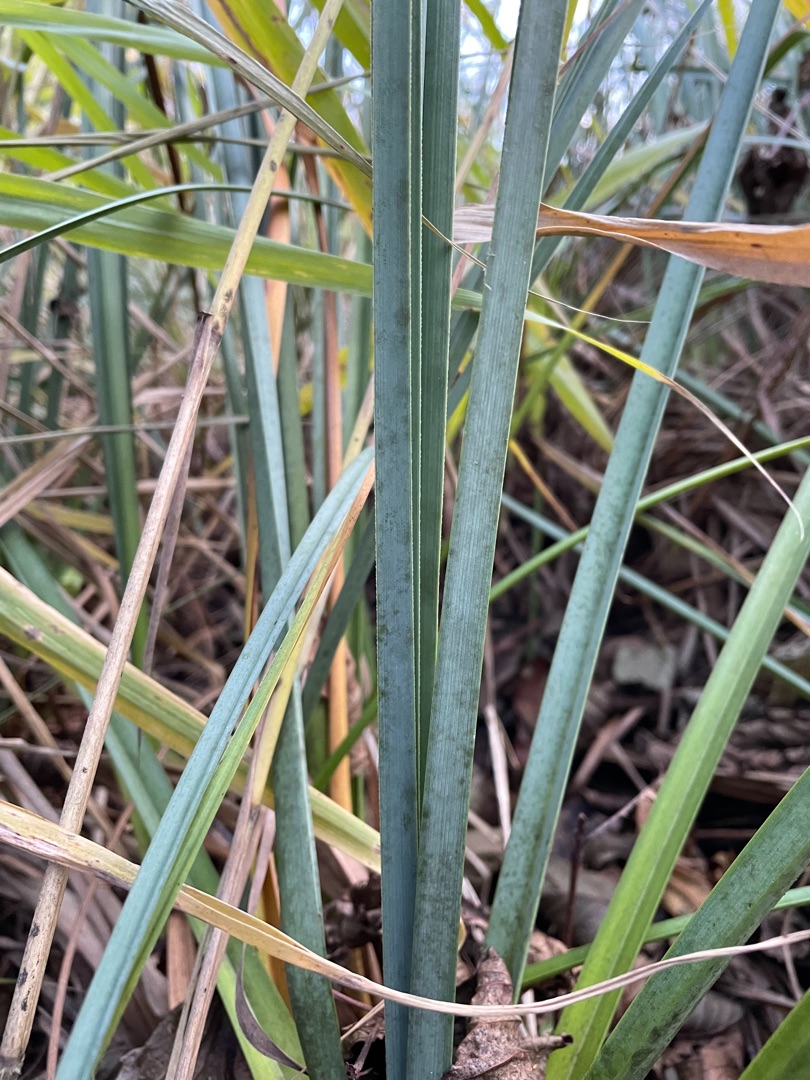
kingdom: Plantae
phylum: Tracheophyta
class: Liliopsida
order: Poales
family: Cyperaceae
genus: Cladium
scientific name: Cladium mariscus
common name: Hvas avneknippe
